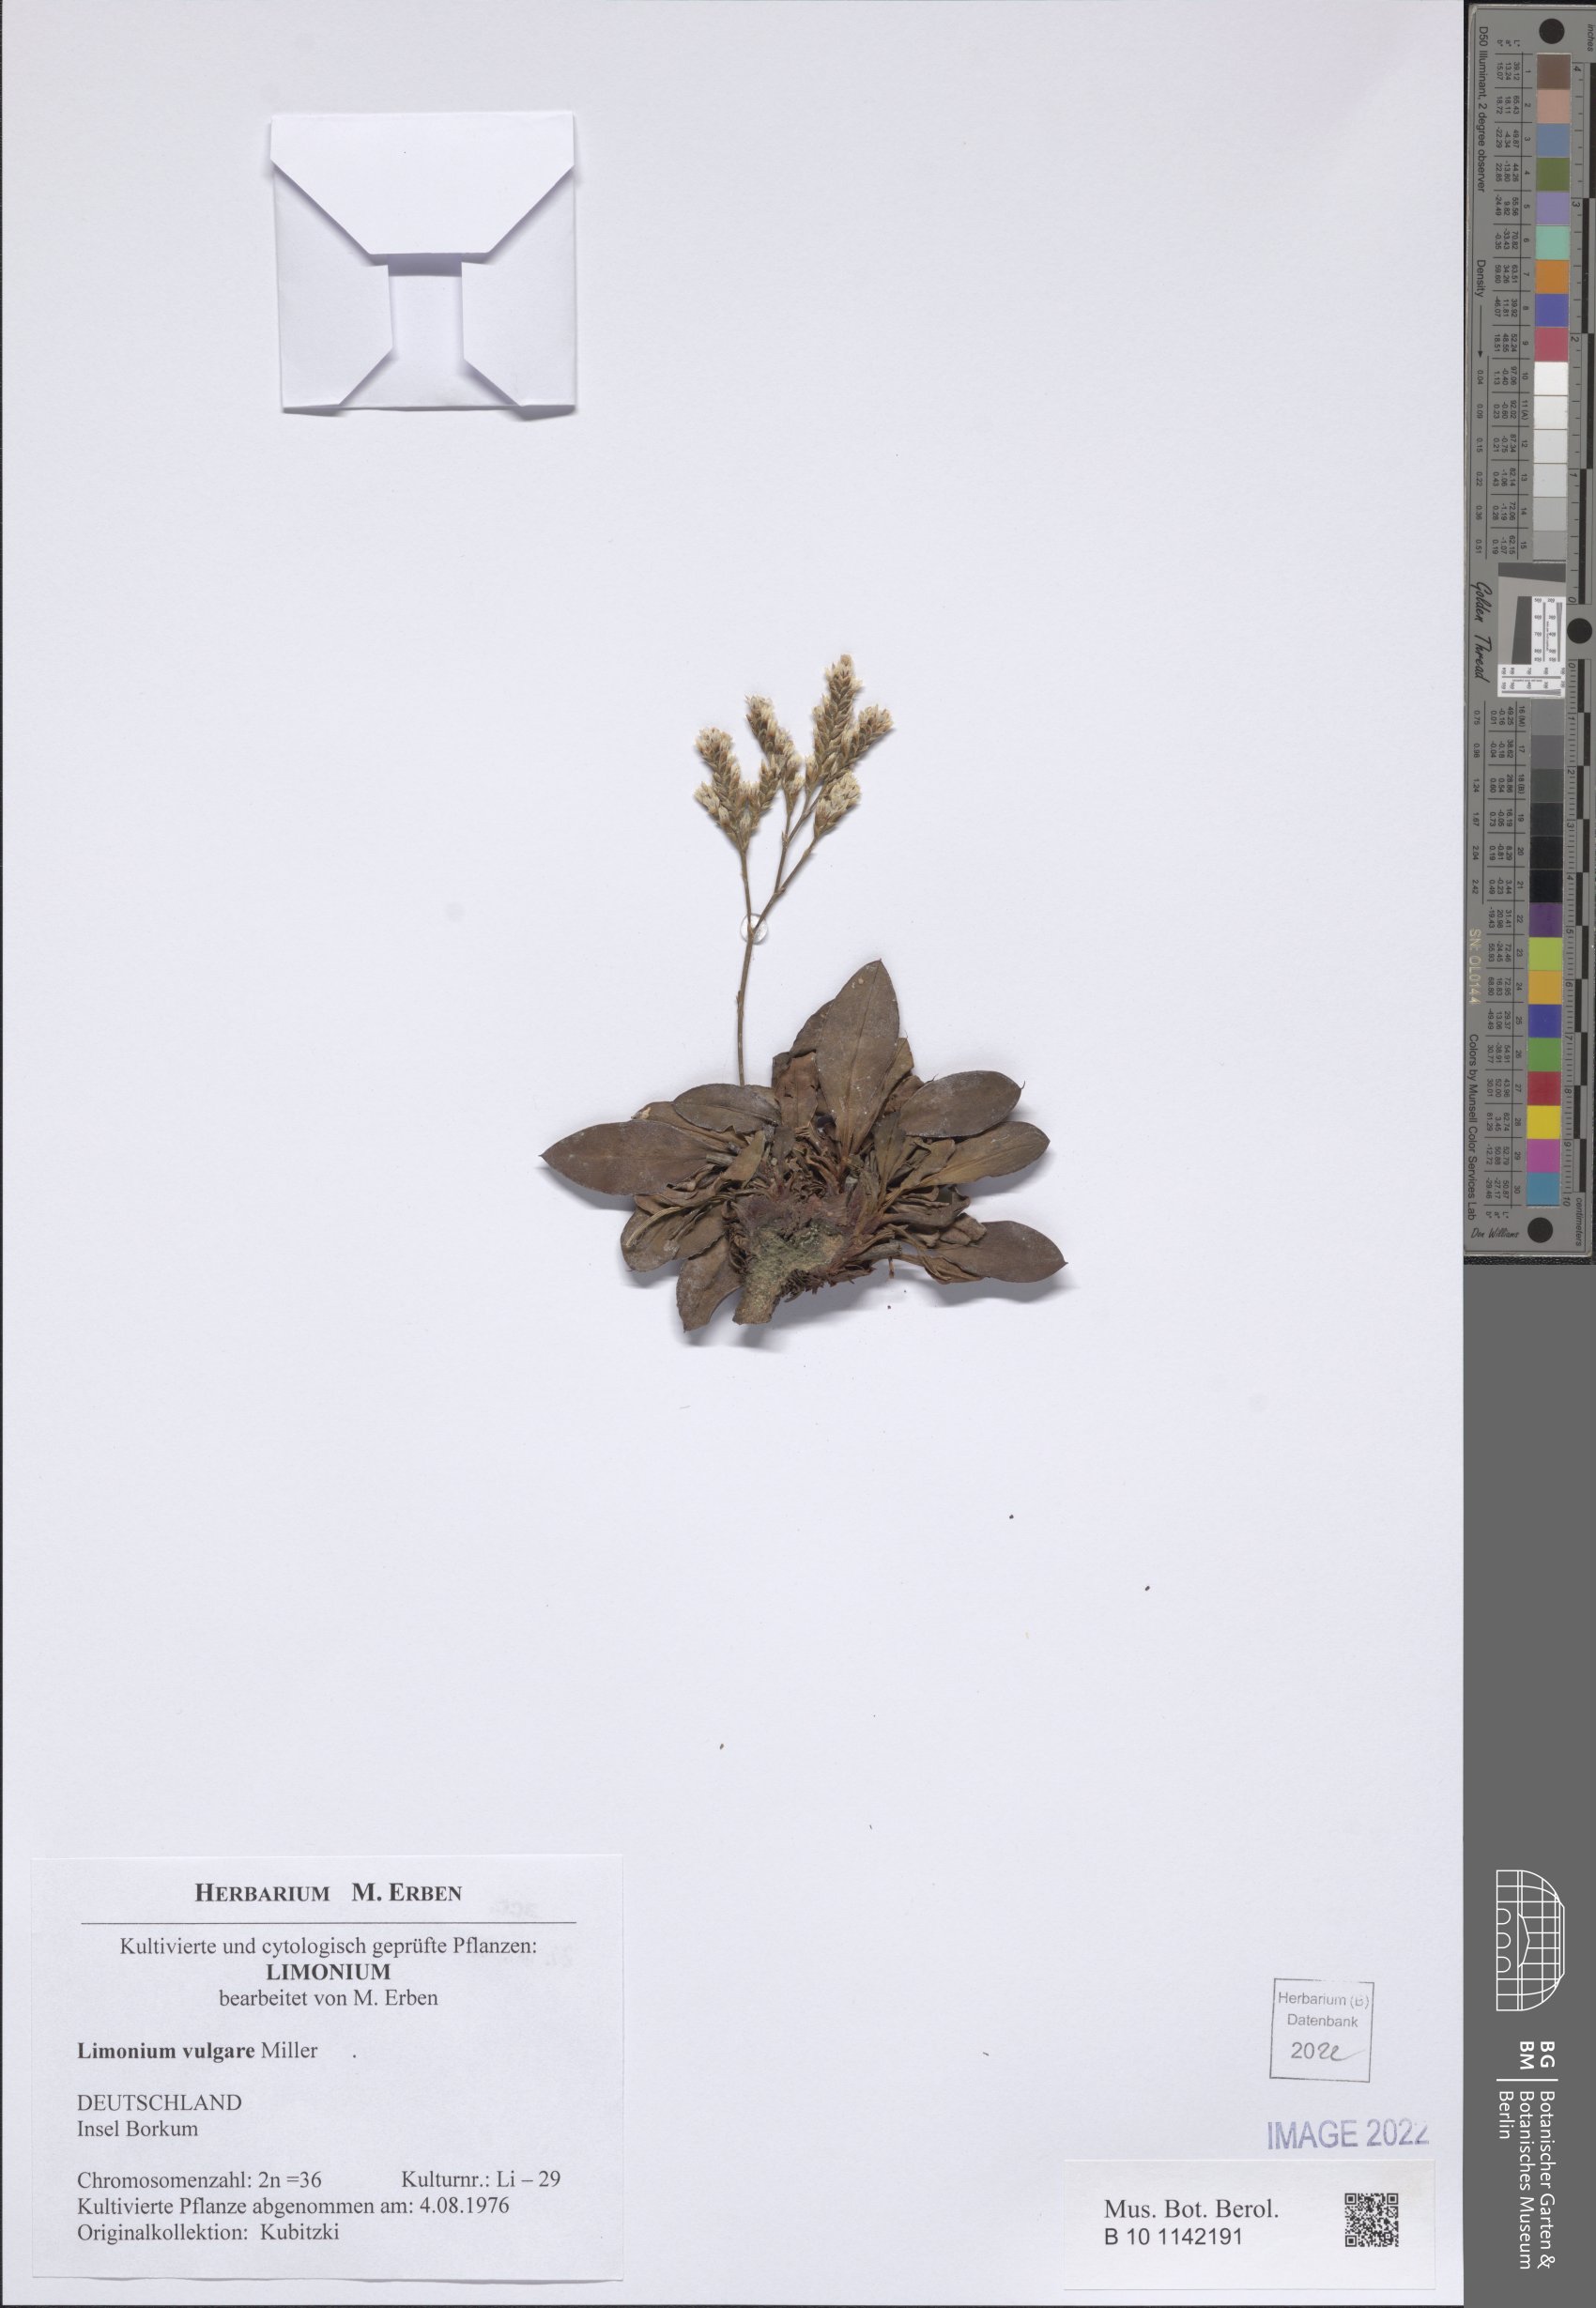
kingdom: Plantae
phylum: Tracheophyta
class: Magnoliopsida
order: Caryophyllales
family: Plumbaginaceae
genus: Limonium
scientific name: Limonium vulgare
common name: Common sea-lavender
